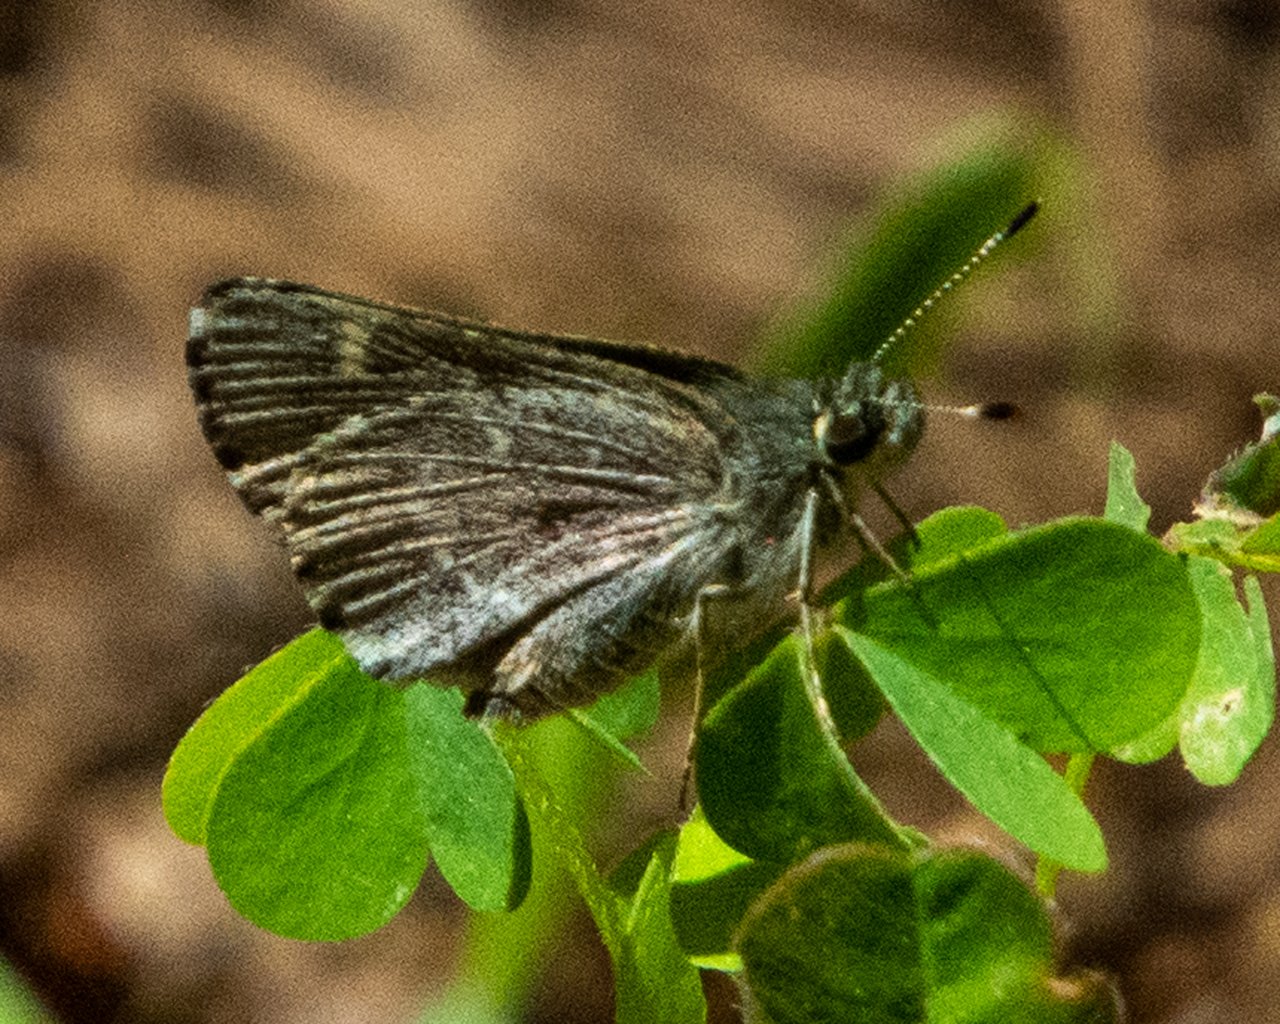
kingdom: Animalia
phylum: Arthropoda
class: Insecta
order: Lepidoptera
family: Hesperiidae
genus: Mastor
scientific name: Mastor hegon
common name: Pepper and Salt Skipper
